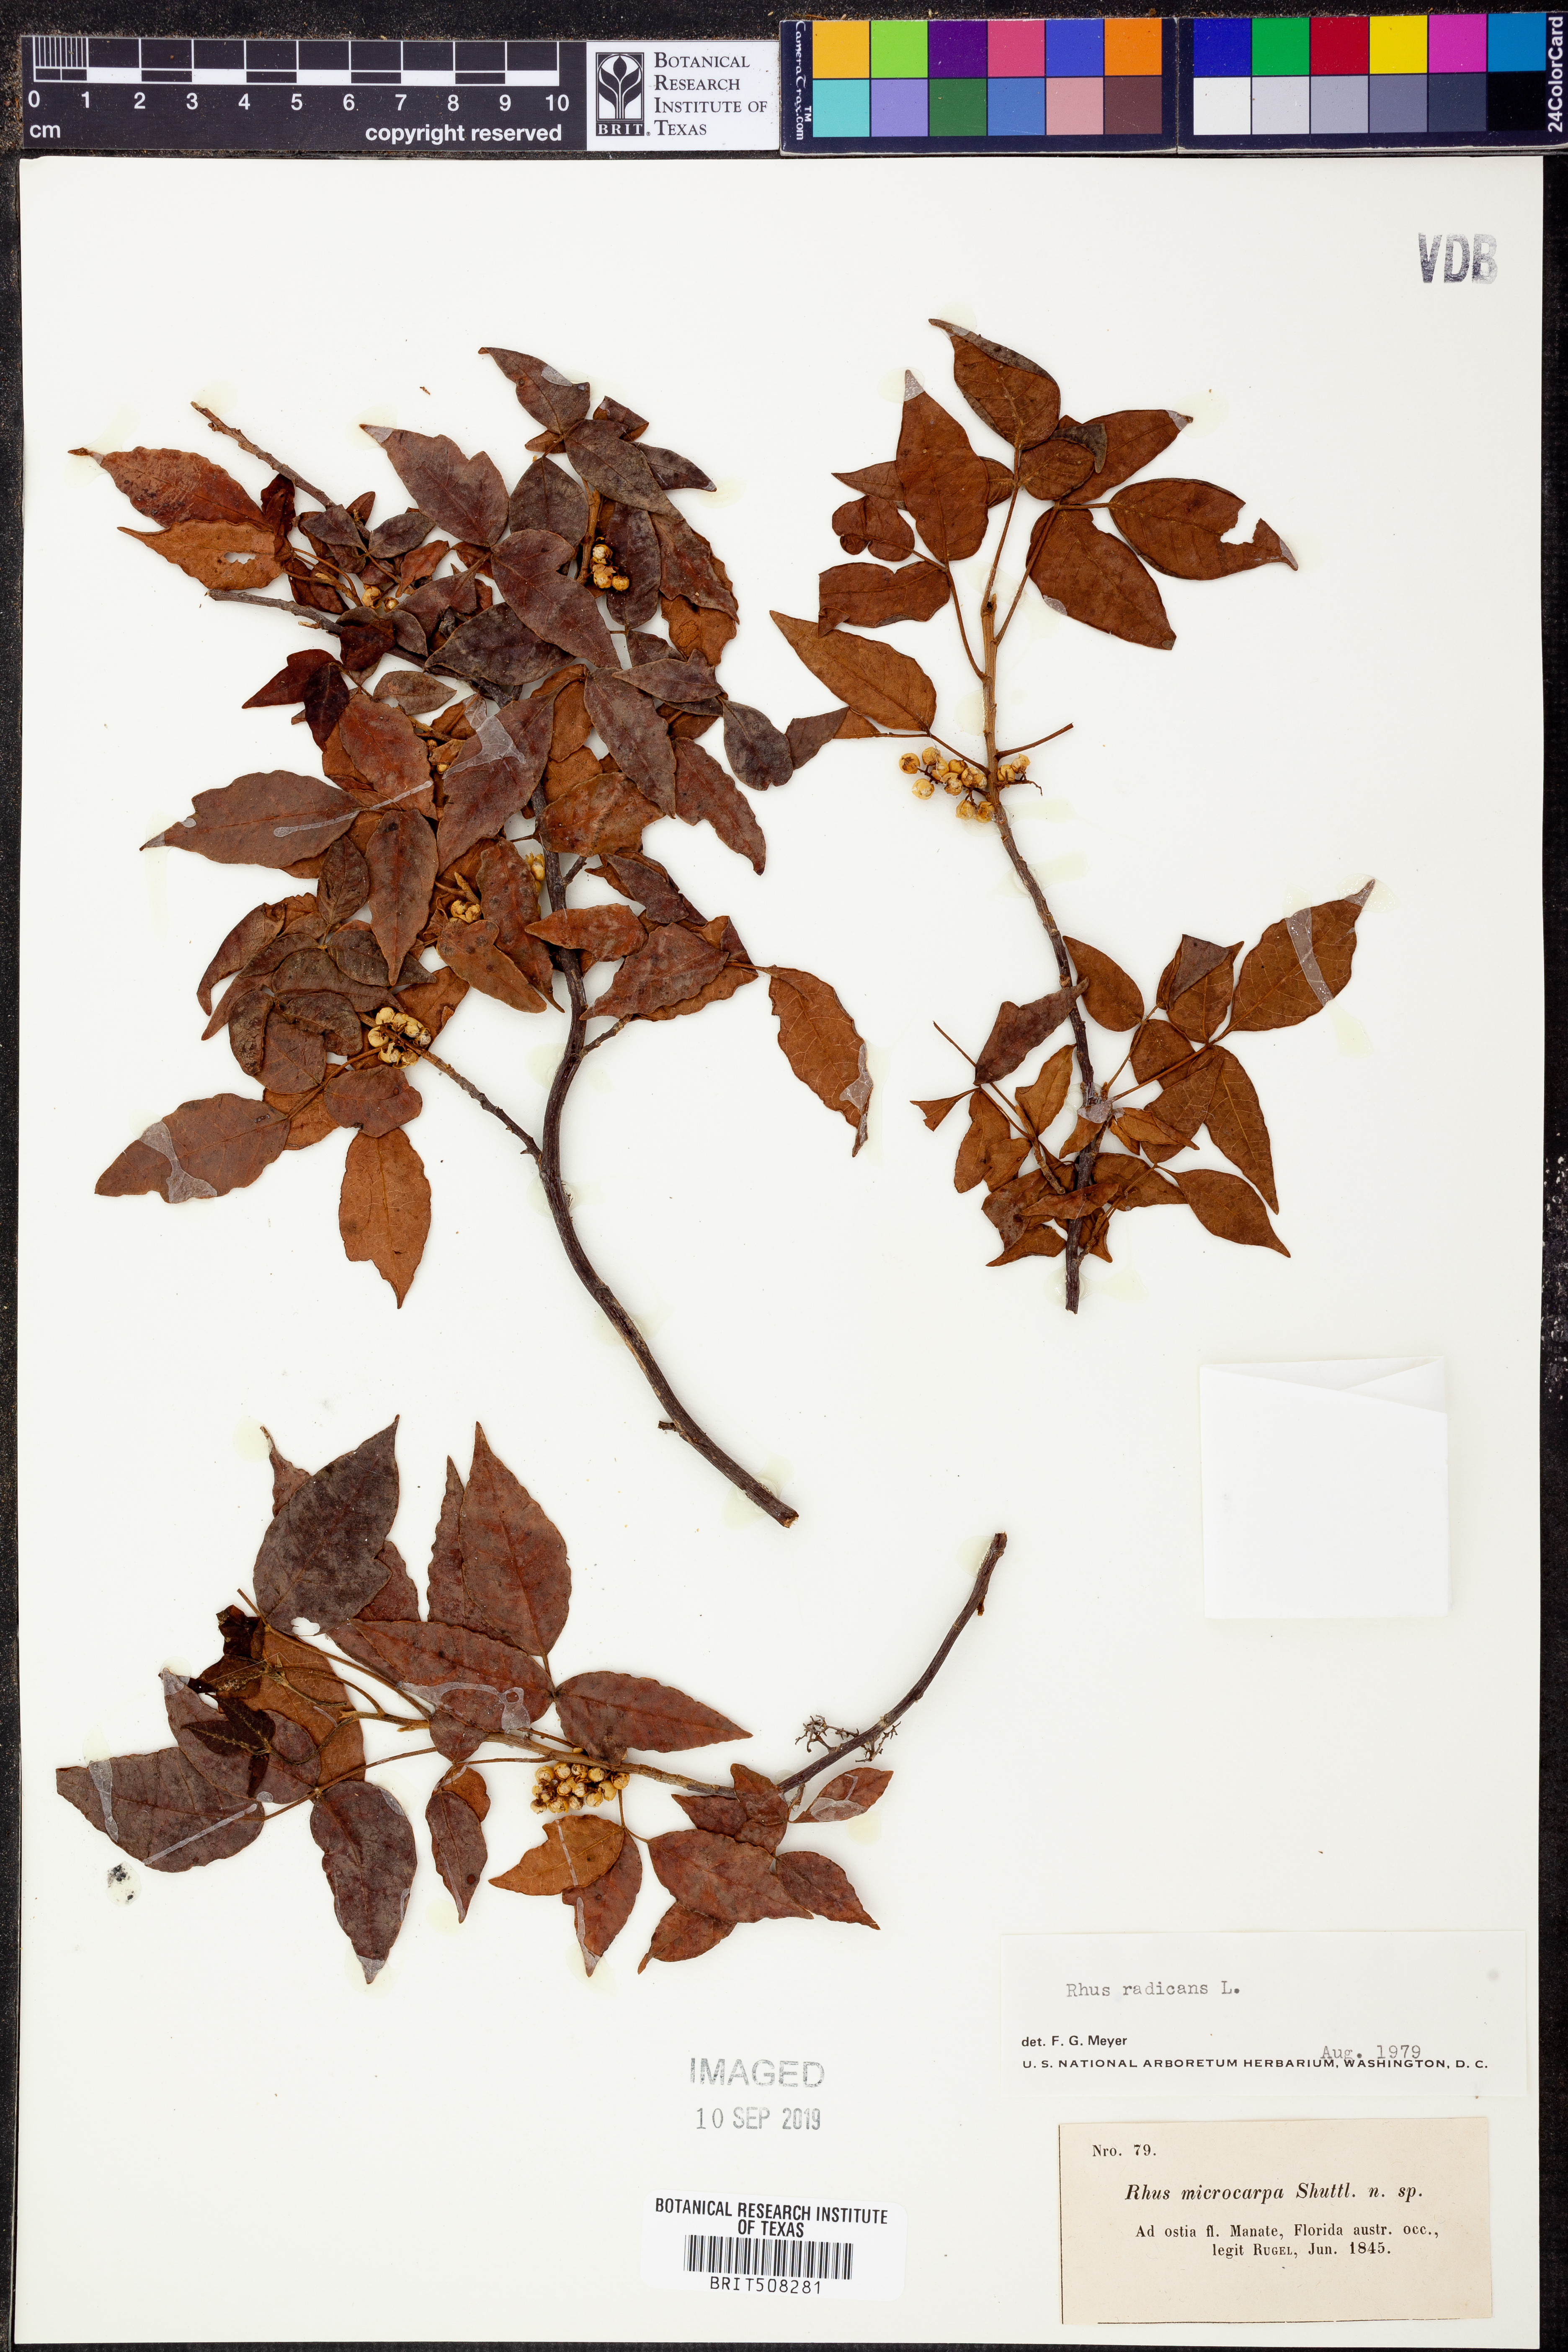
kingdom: Plantae
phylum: Tracheophyta
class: Magnoliopsida
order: Sapindales
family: Anacardiaceae
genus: Toxicodendron
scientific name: Toxicodendron radicans
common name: Poison ivy
